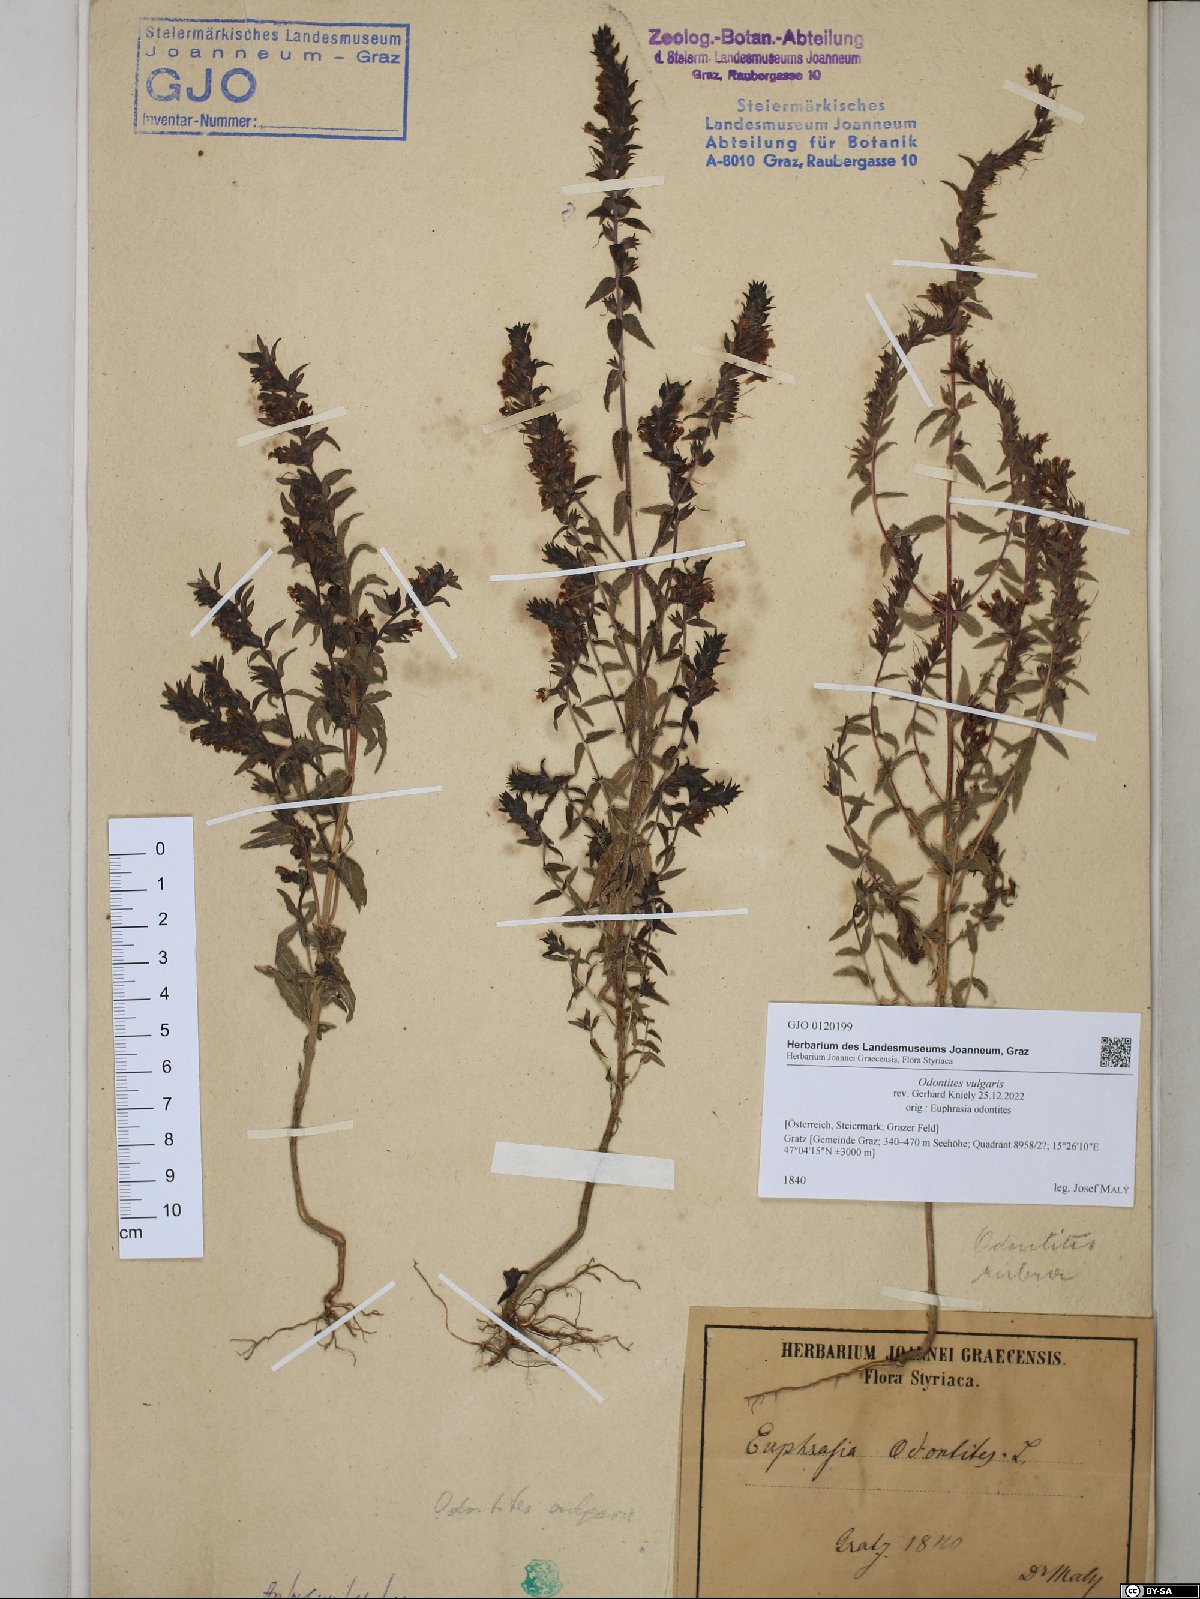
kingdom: Plantae
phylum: Tracheophyta
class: Magnoliopsida
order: Lamiales
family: Orobanchaceae
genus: Odontites
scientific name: Odontites vulgaris
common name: Broomrape
